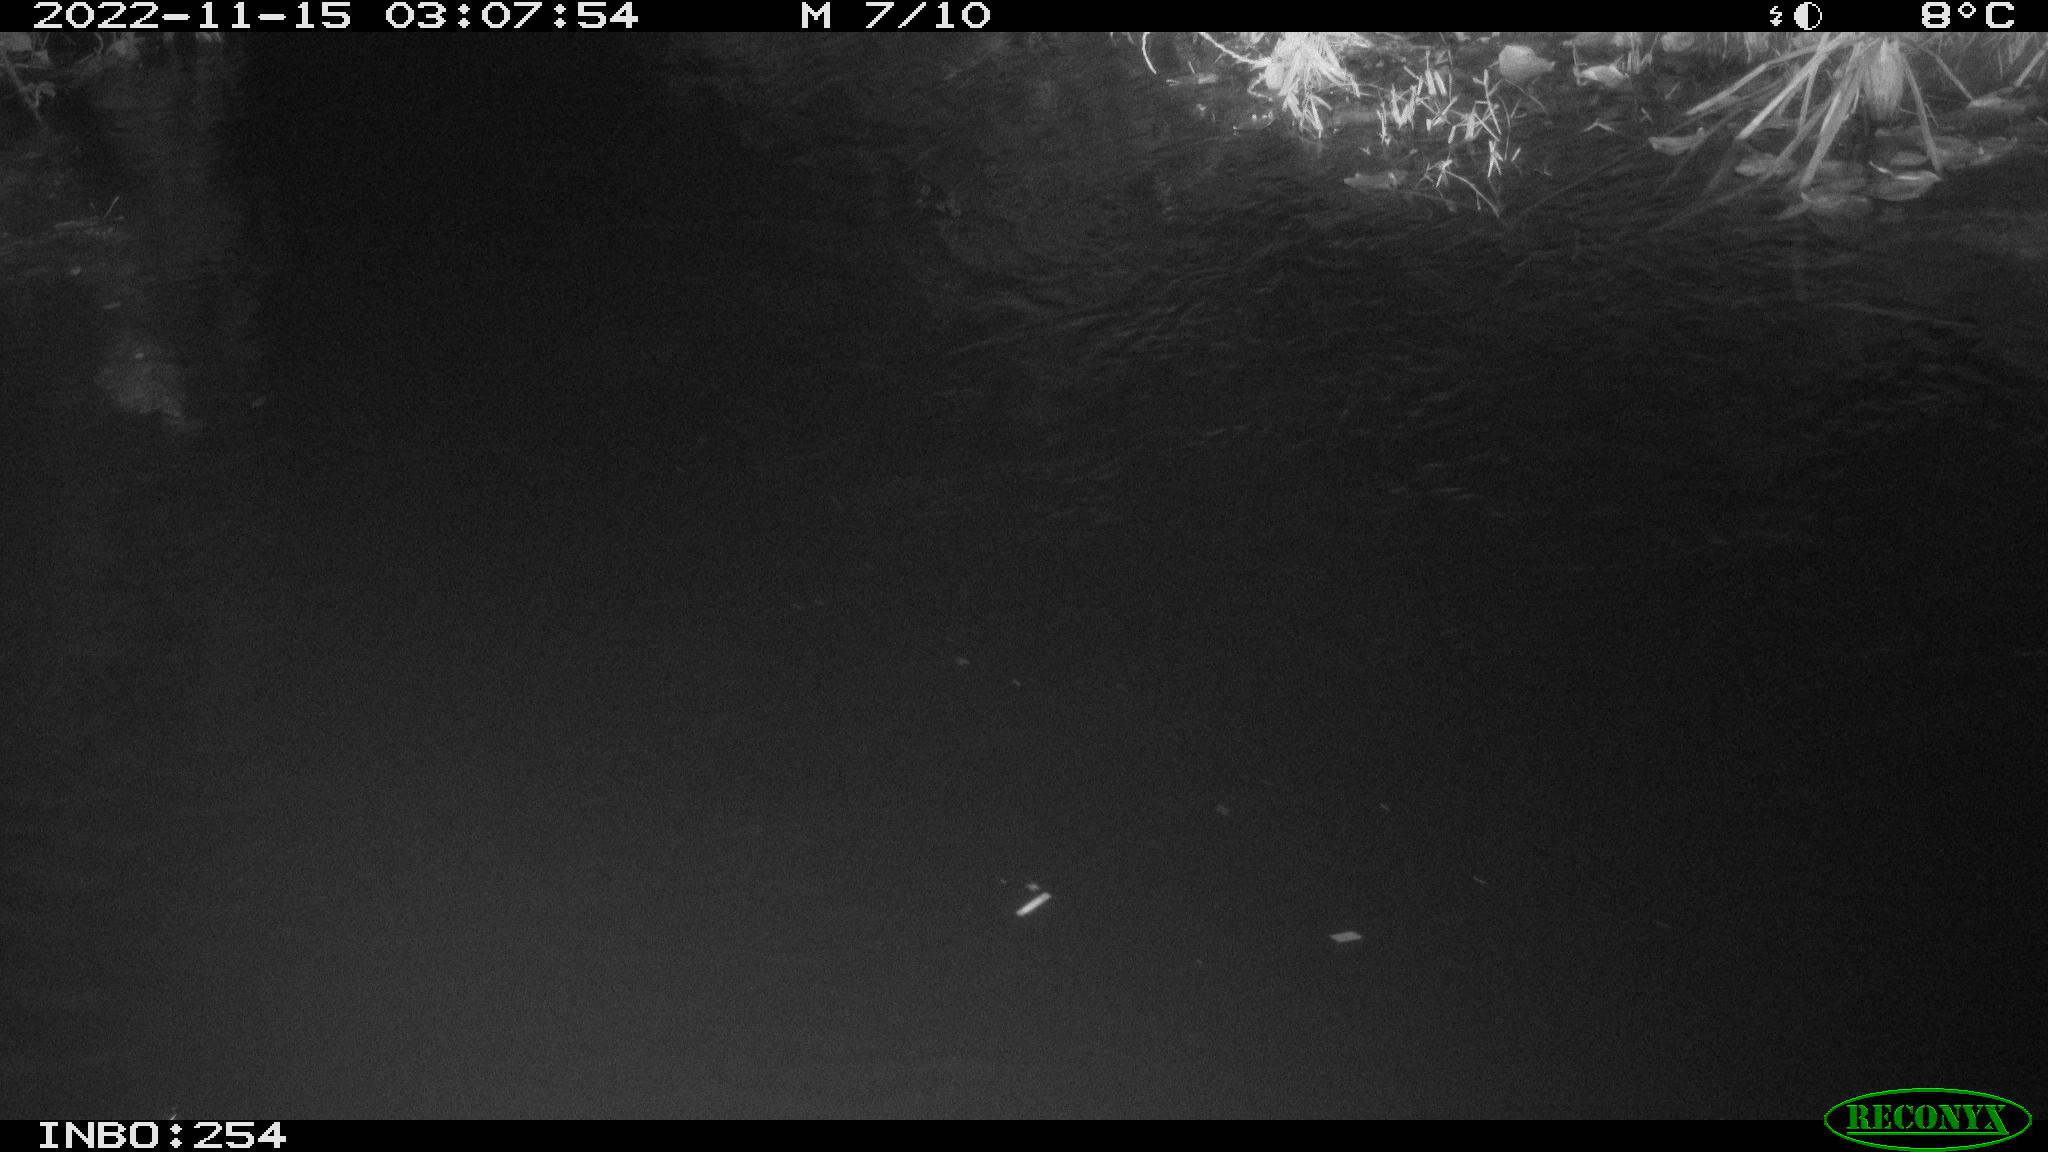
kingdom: Animalia
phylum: Chordata
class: Aves
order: Anseriformes
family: Anatidae
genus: Anas
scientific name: Anas
